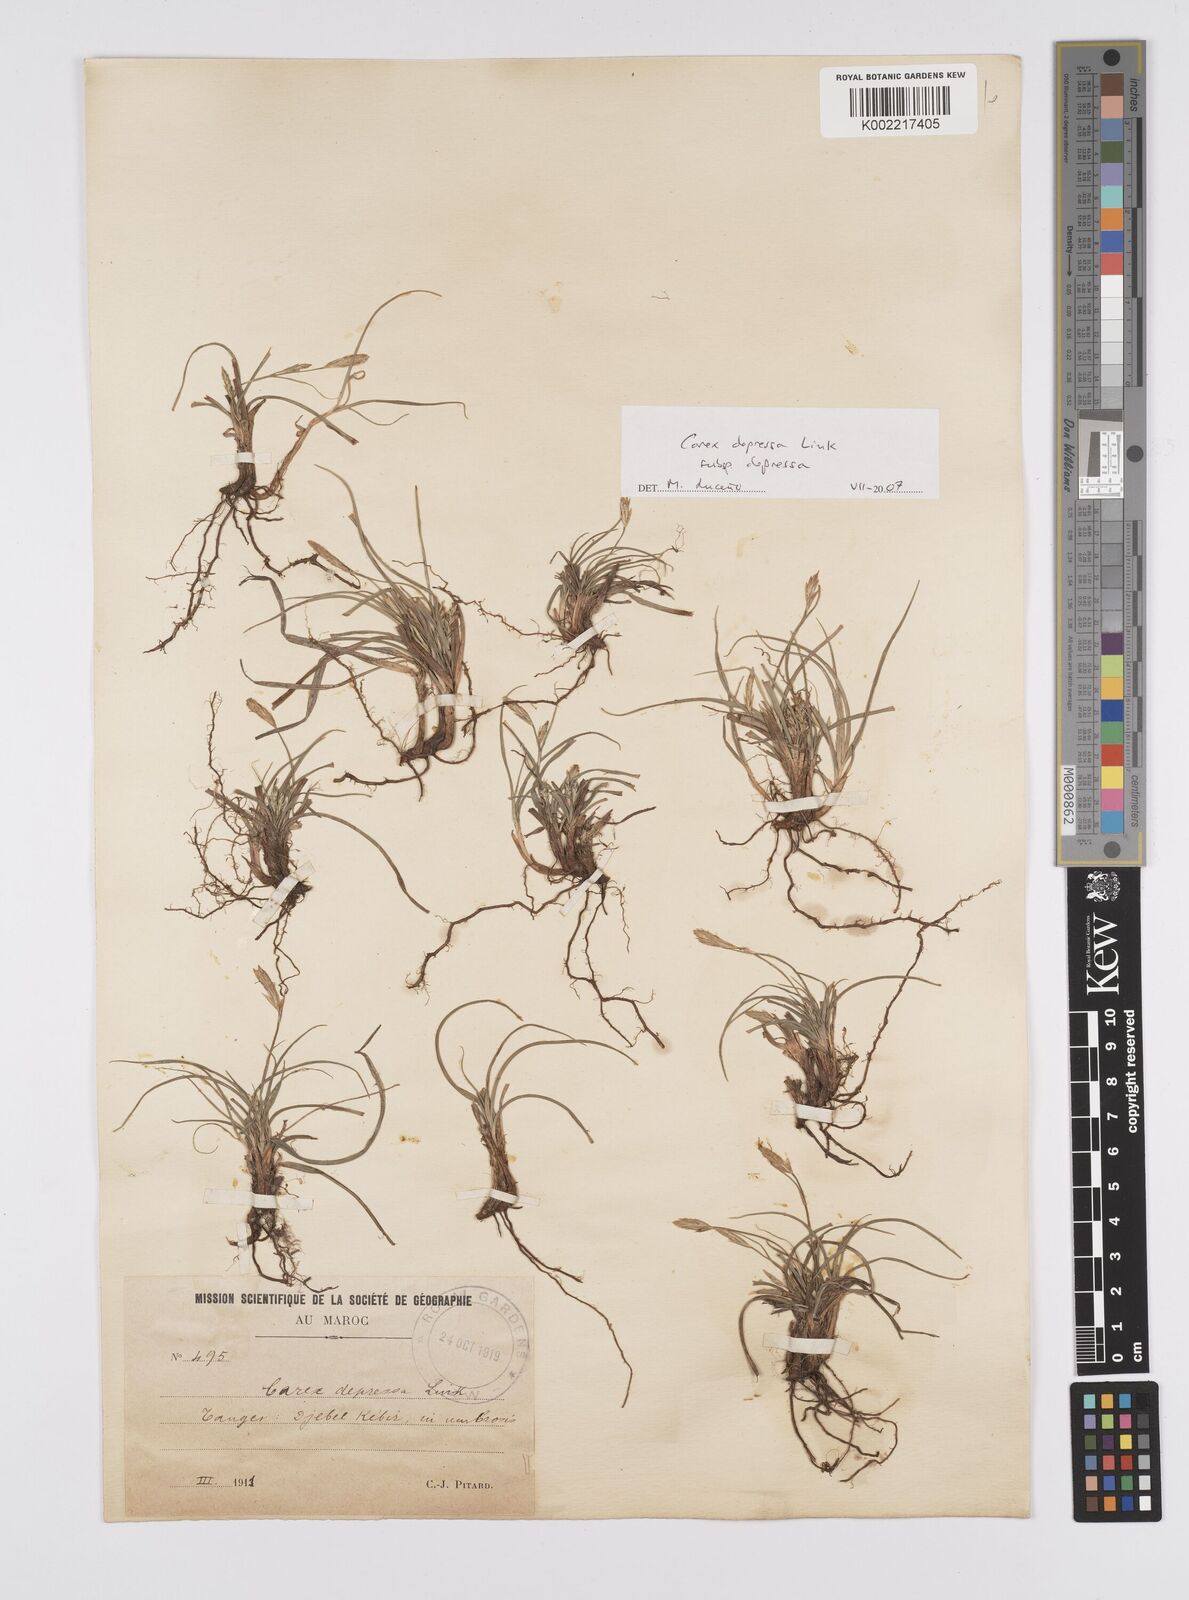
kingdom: Plantae
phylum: Tracheophyta
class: Liliopsida
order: Poales
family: Cyperaceae
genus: Carex
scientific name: Carex depressa
